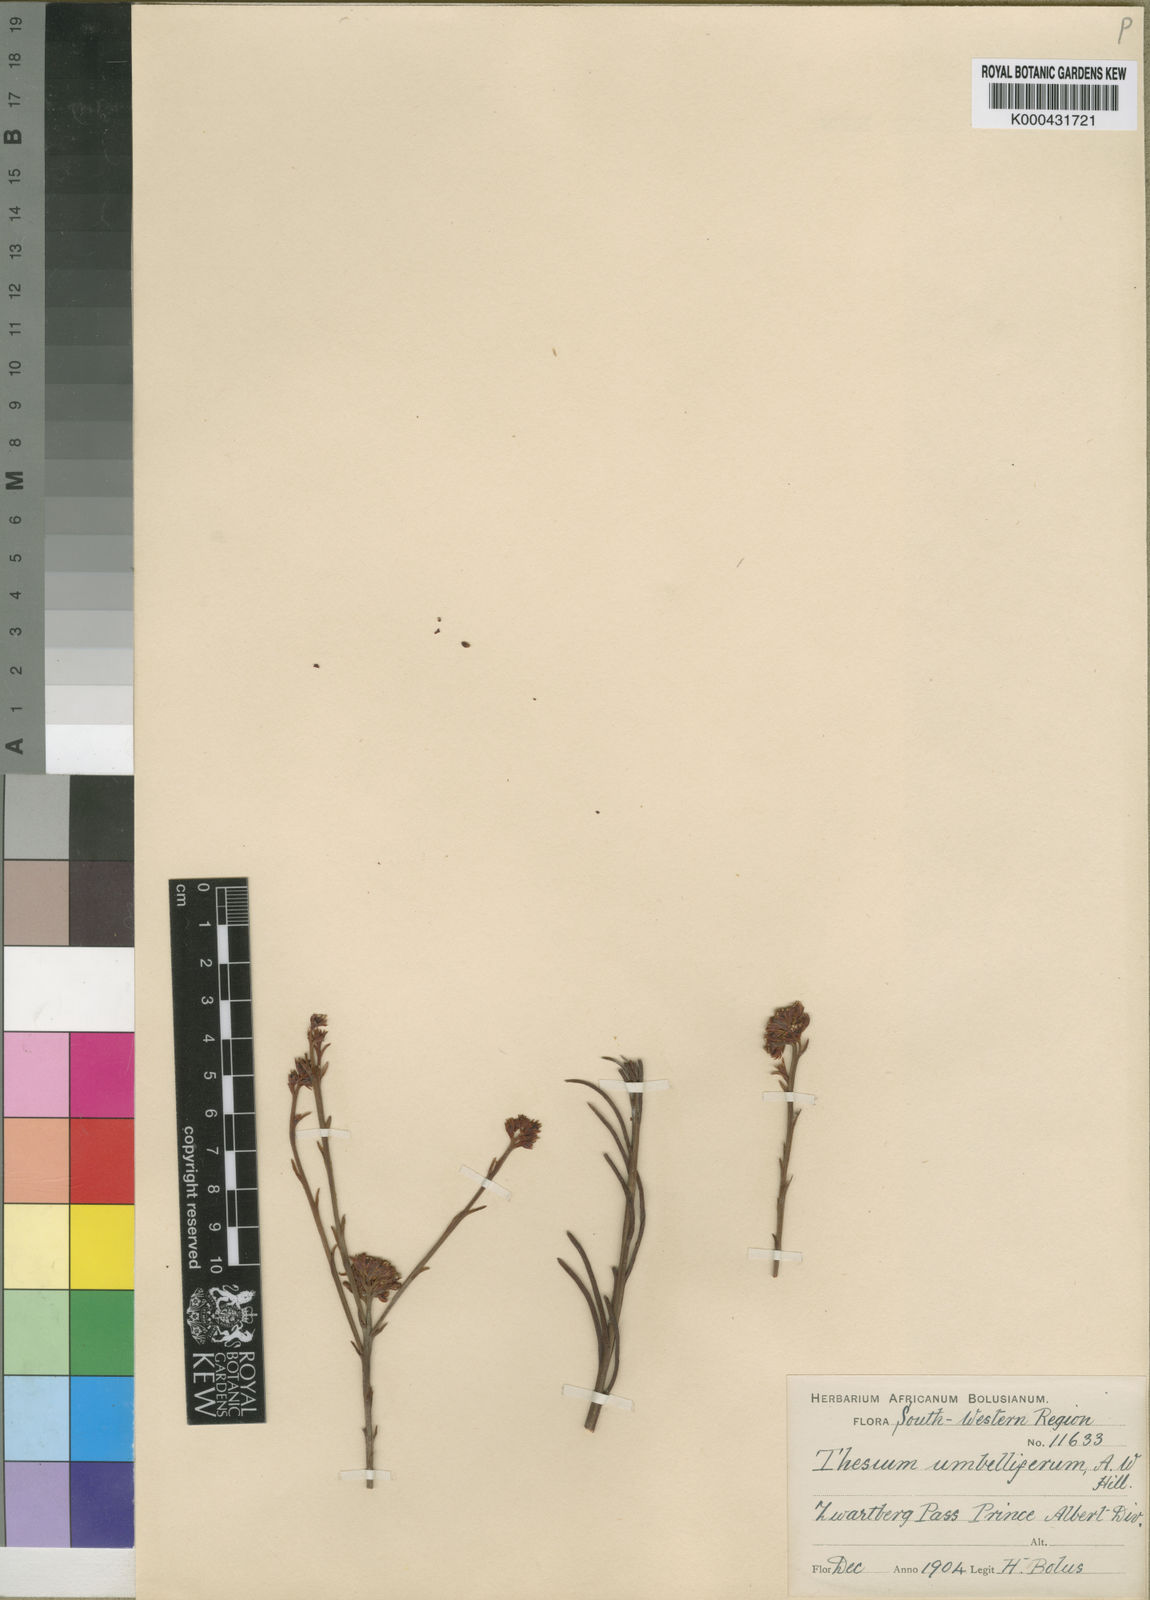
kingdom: Plantae
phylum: Tracheophyta
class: Magnoliopsida
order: Santalales
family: Thesiaceae
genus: Thesium
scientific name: Thesium umbelliferum
